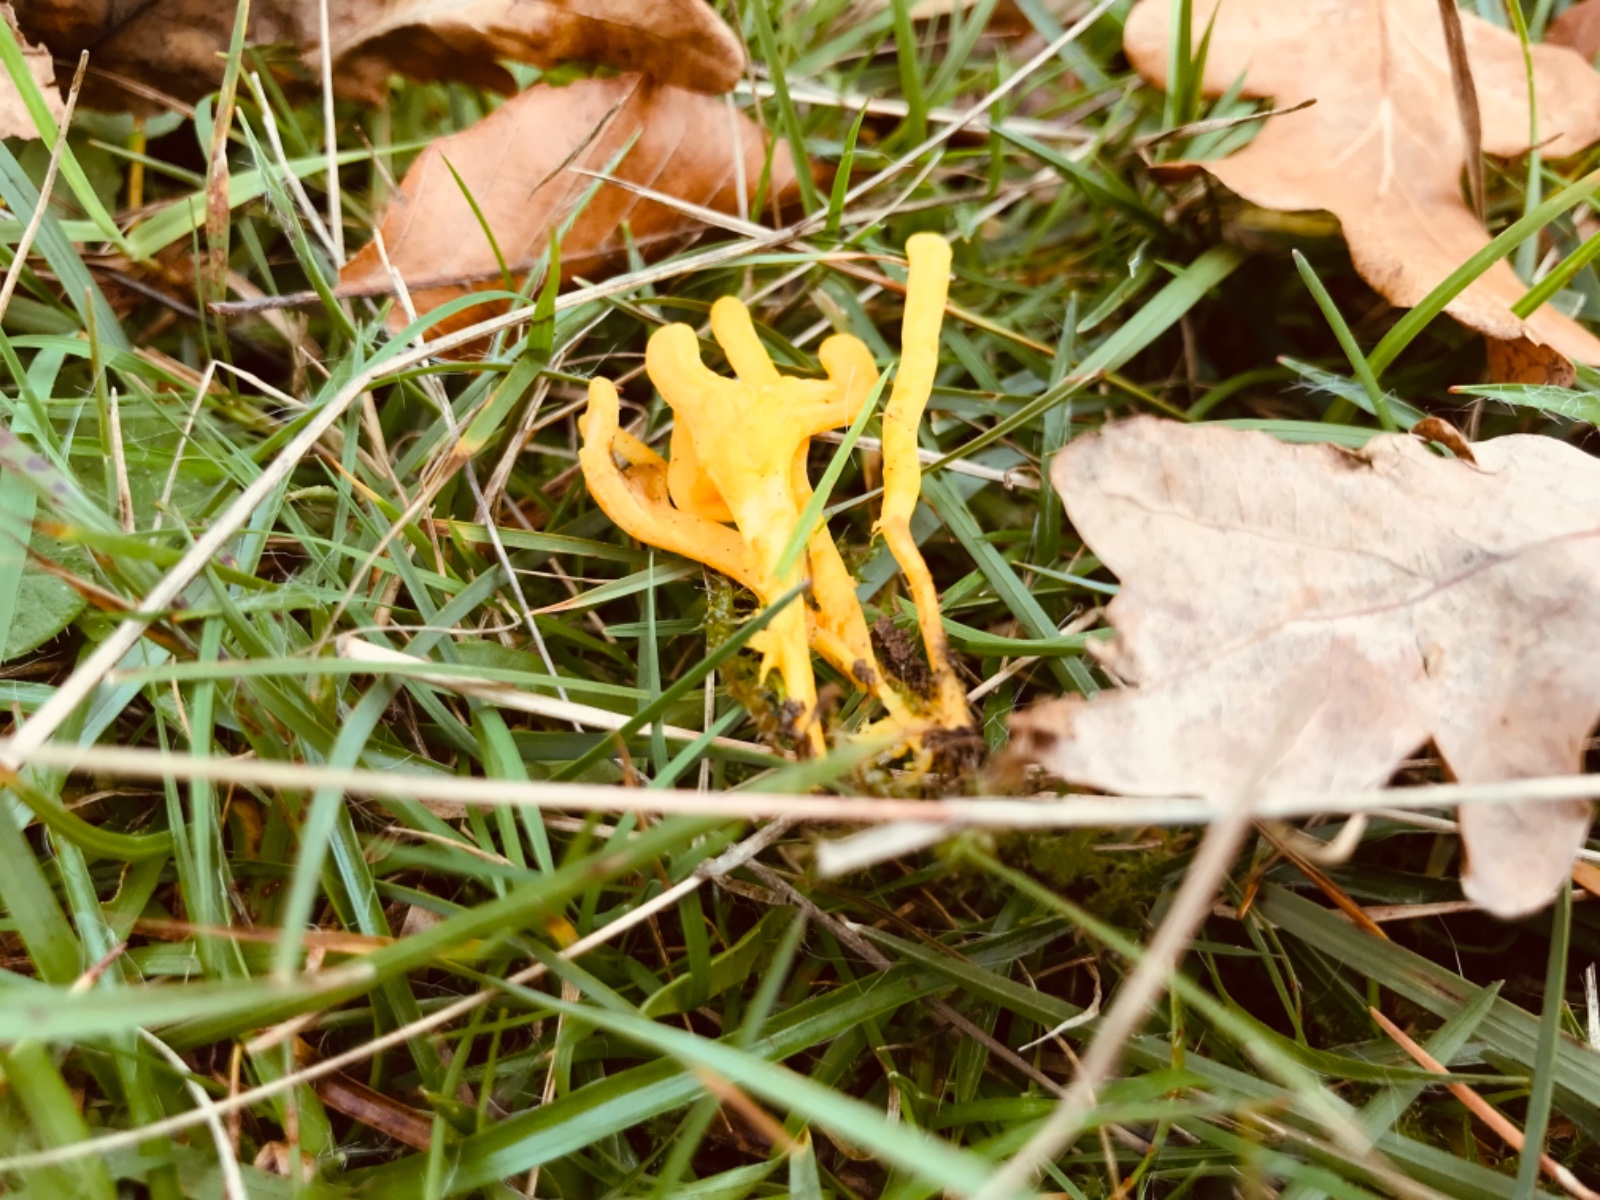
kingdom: Fungi
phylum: Basidiomycota
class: Agaricomycetes
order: Agaricales
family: Clavariaceae
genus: Clavulinopsis
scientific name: Clavulinopsis helvola
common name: orangegul køllesvamp
